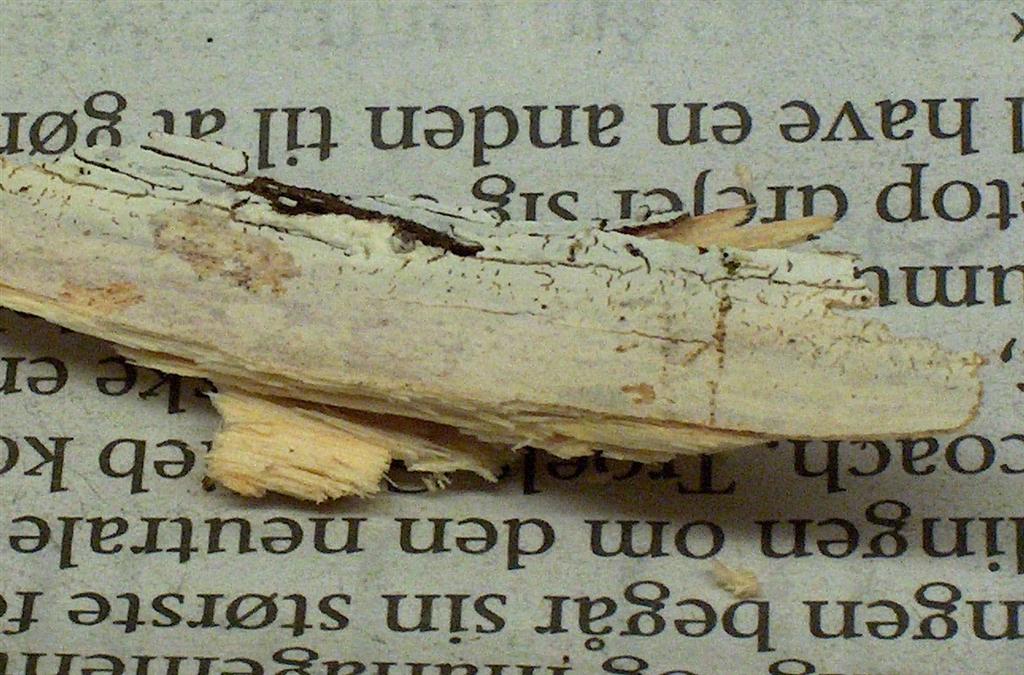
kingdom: Fungi
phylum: Basidiomycota
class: Agaricomycetes
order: Corticiales
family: Corticiaceae
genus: Lyomyces
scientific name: Lyomyces sambuci
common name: almindelig hyldehinde
